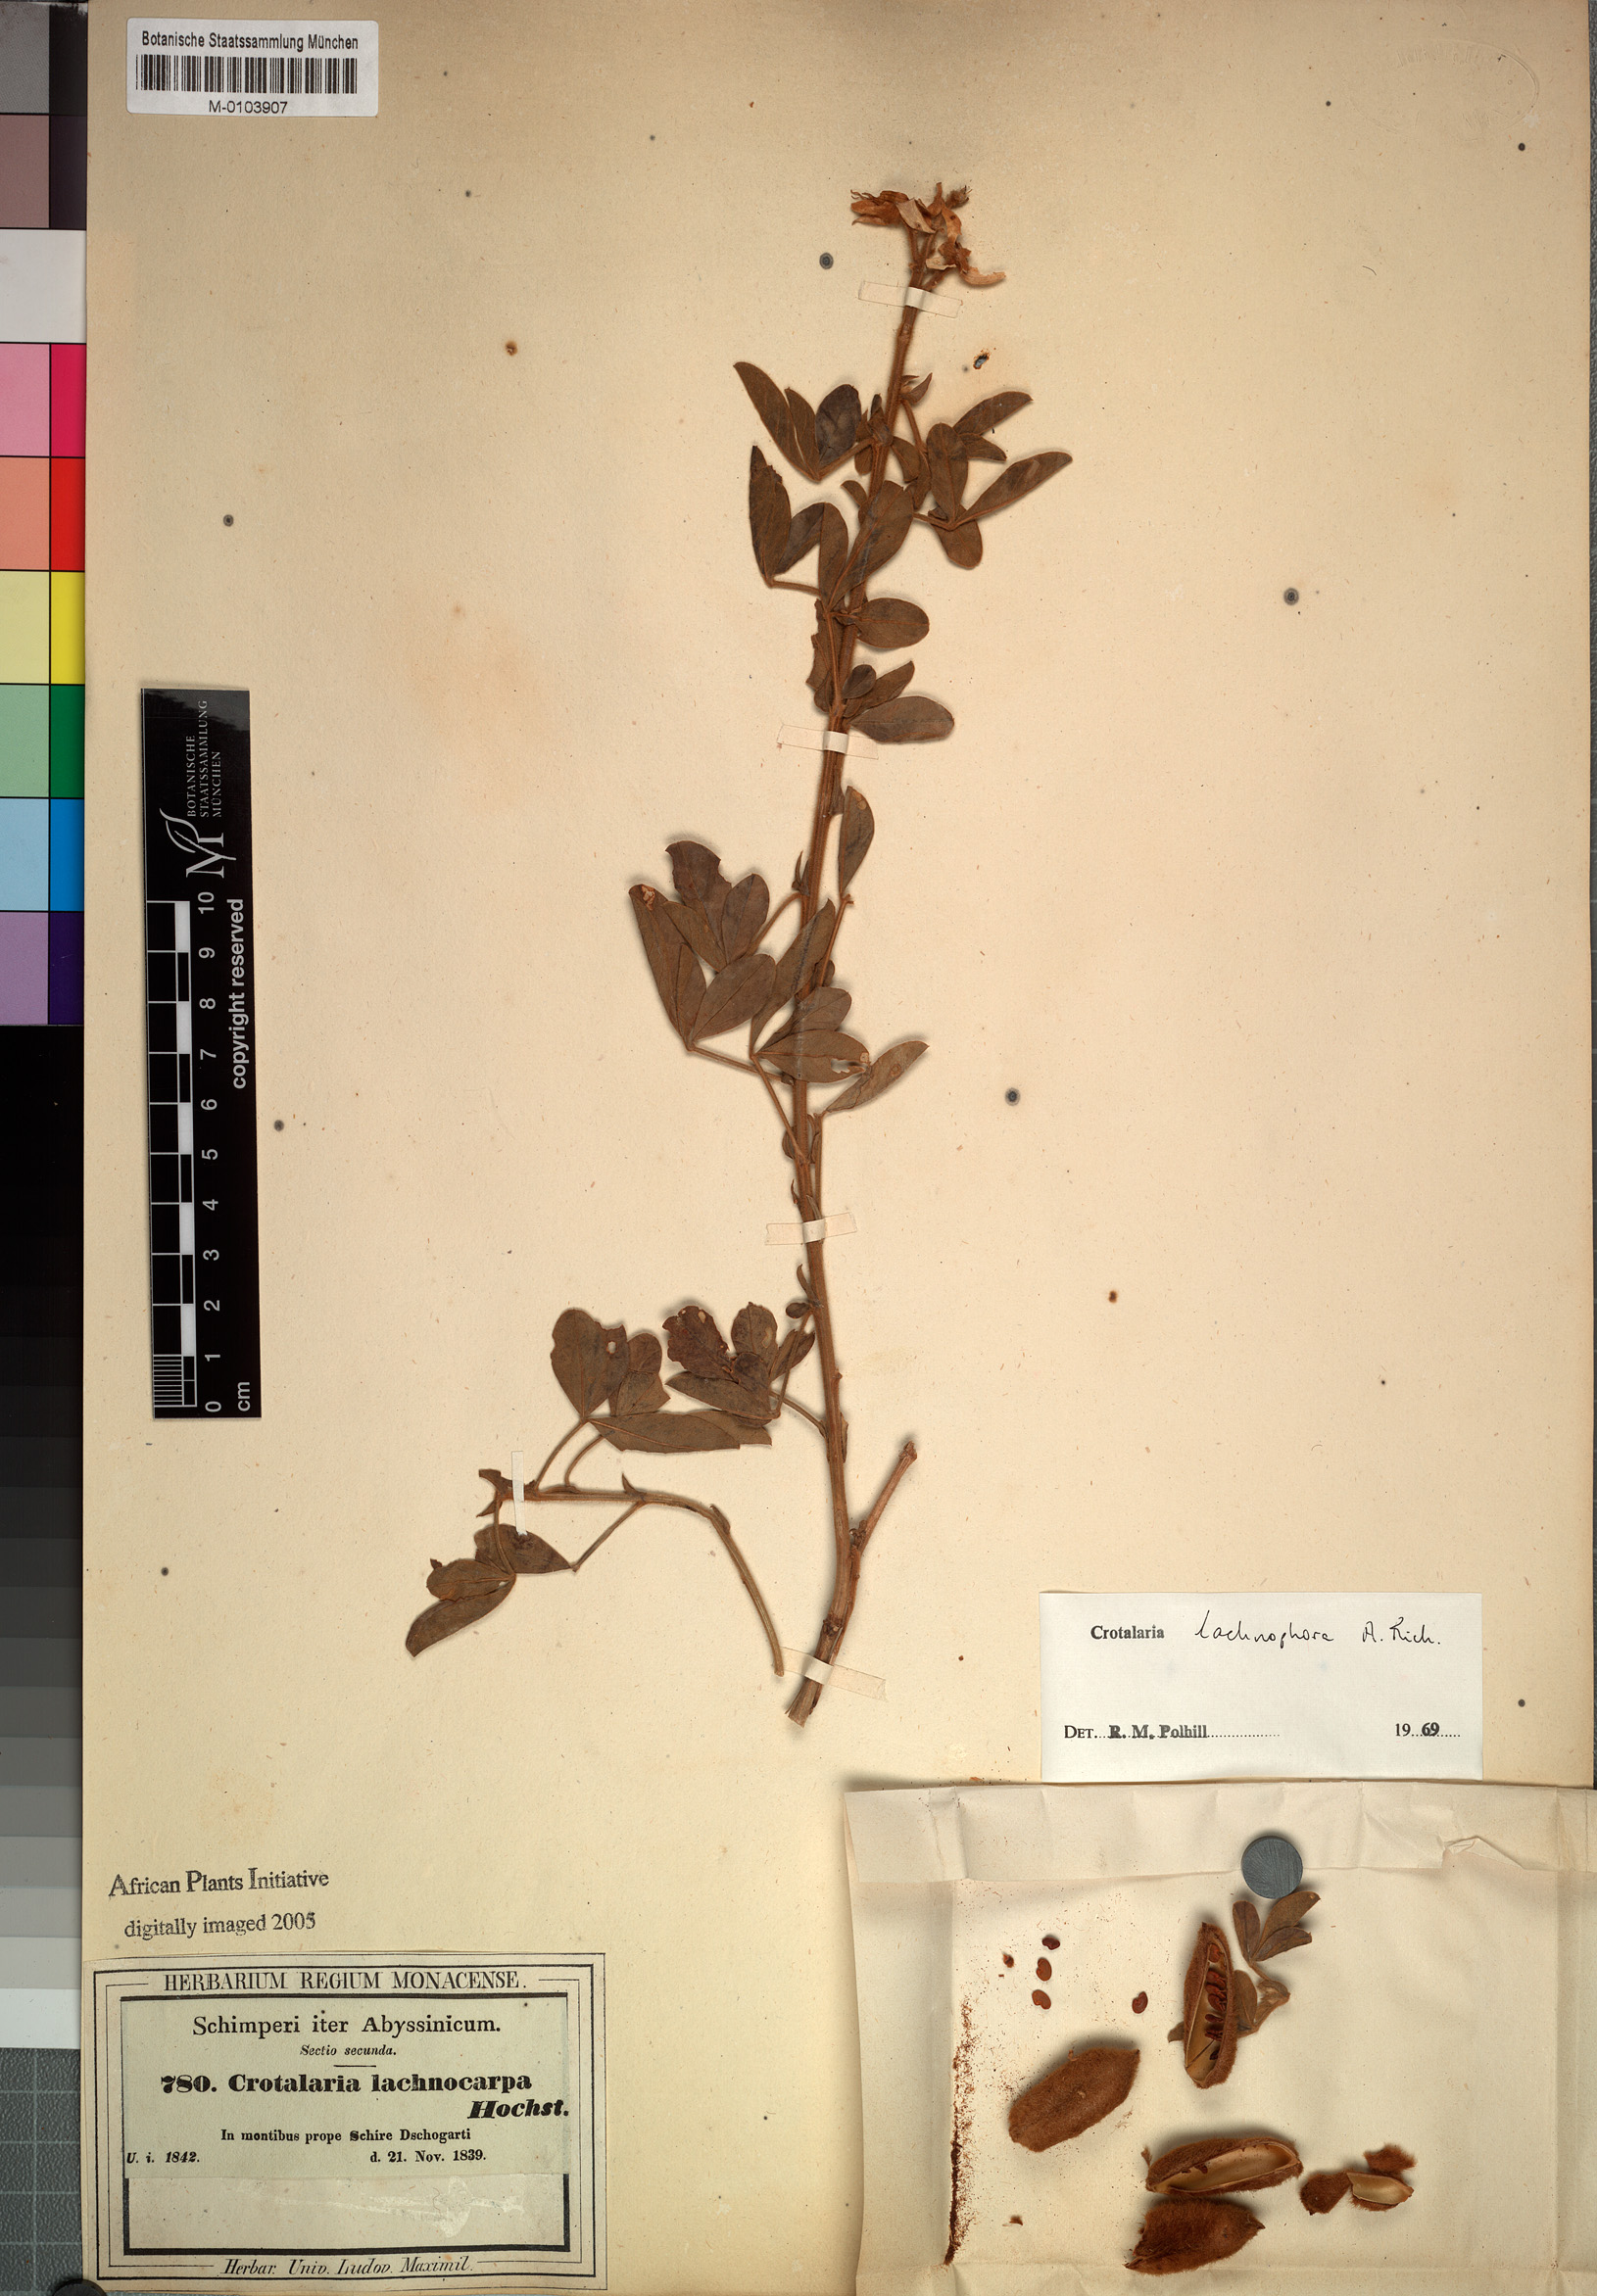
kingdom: Plantae
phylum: Tracheophyta
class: Magnoliopsida
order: Fabales
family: Fabaceae
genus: Crotalaria
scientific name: Crotalaria lachnophora
